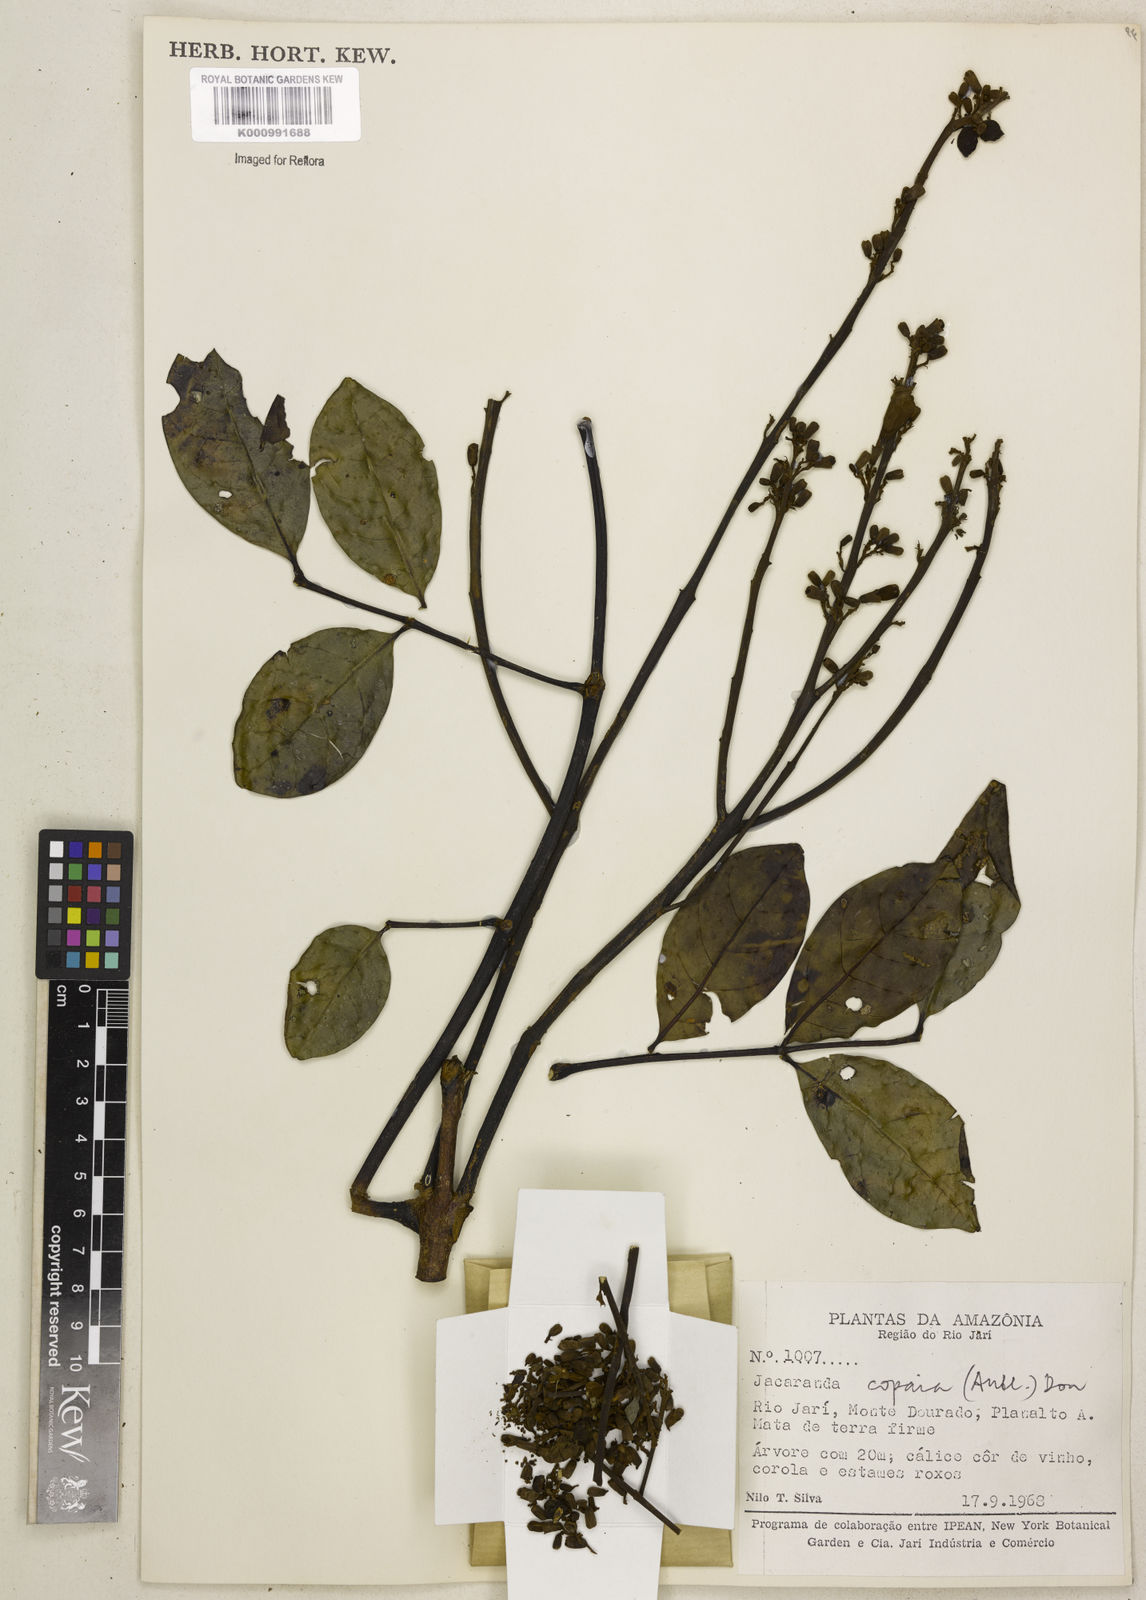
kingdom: Plantae
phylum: Tracheophyta
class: Magnoliopsida
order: Lamiales
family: Bignoniaceae
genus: Jacaranda
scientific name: Jacaranda
